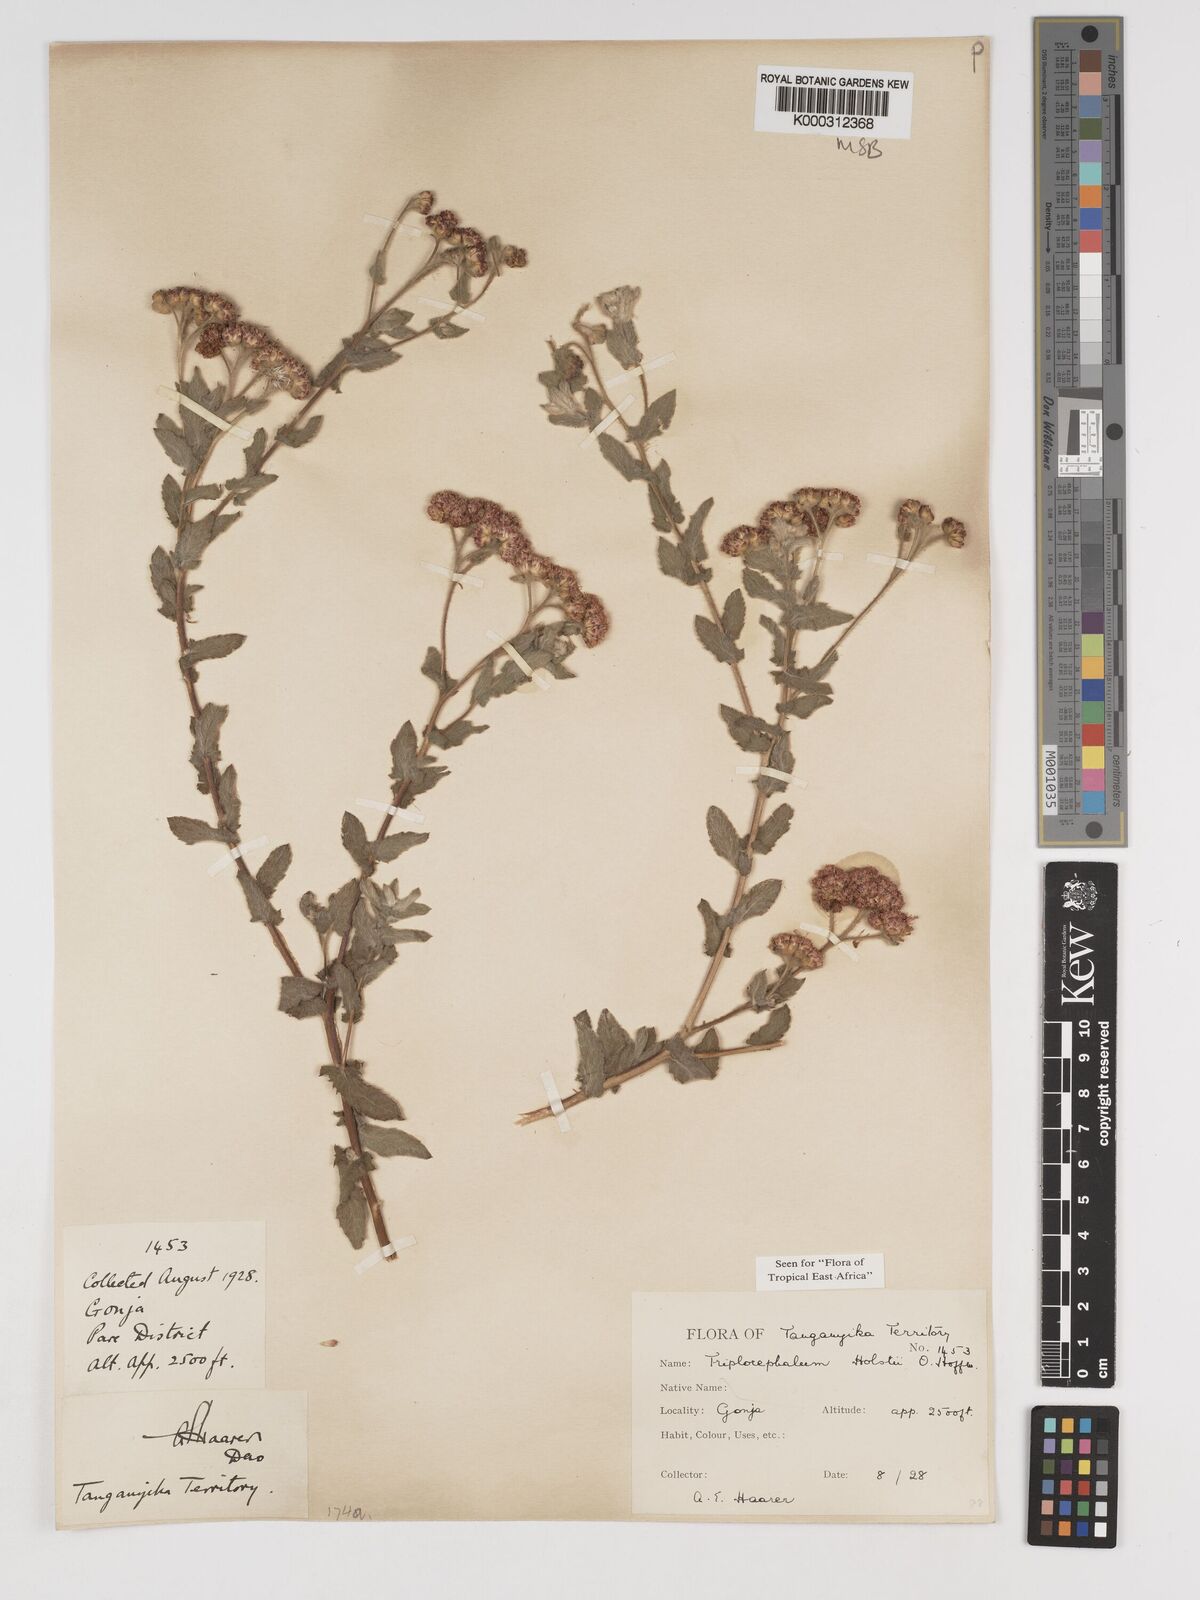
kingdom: Plantae
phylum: Tracheophyta
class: Magnoliopsida
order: Asterales
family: Asteraceae
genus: Triplocephalum
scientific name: Triplocephalum holstii
